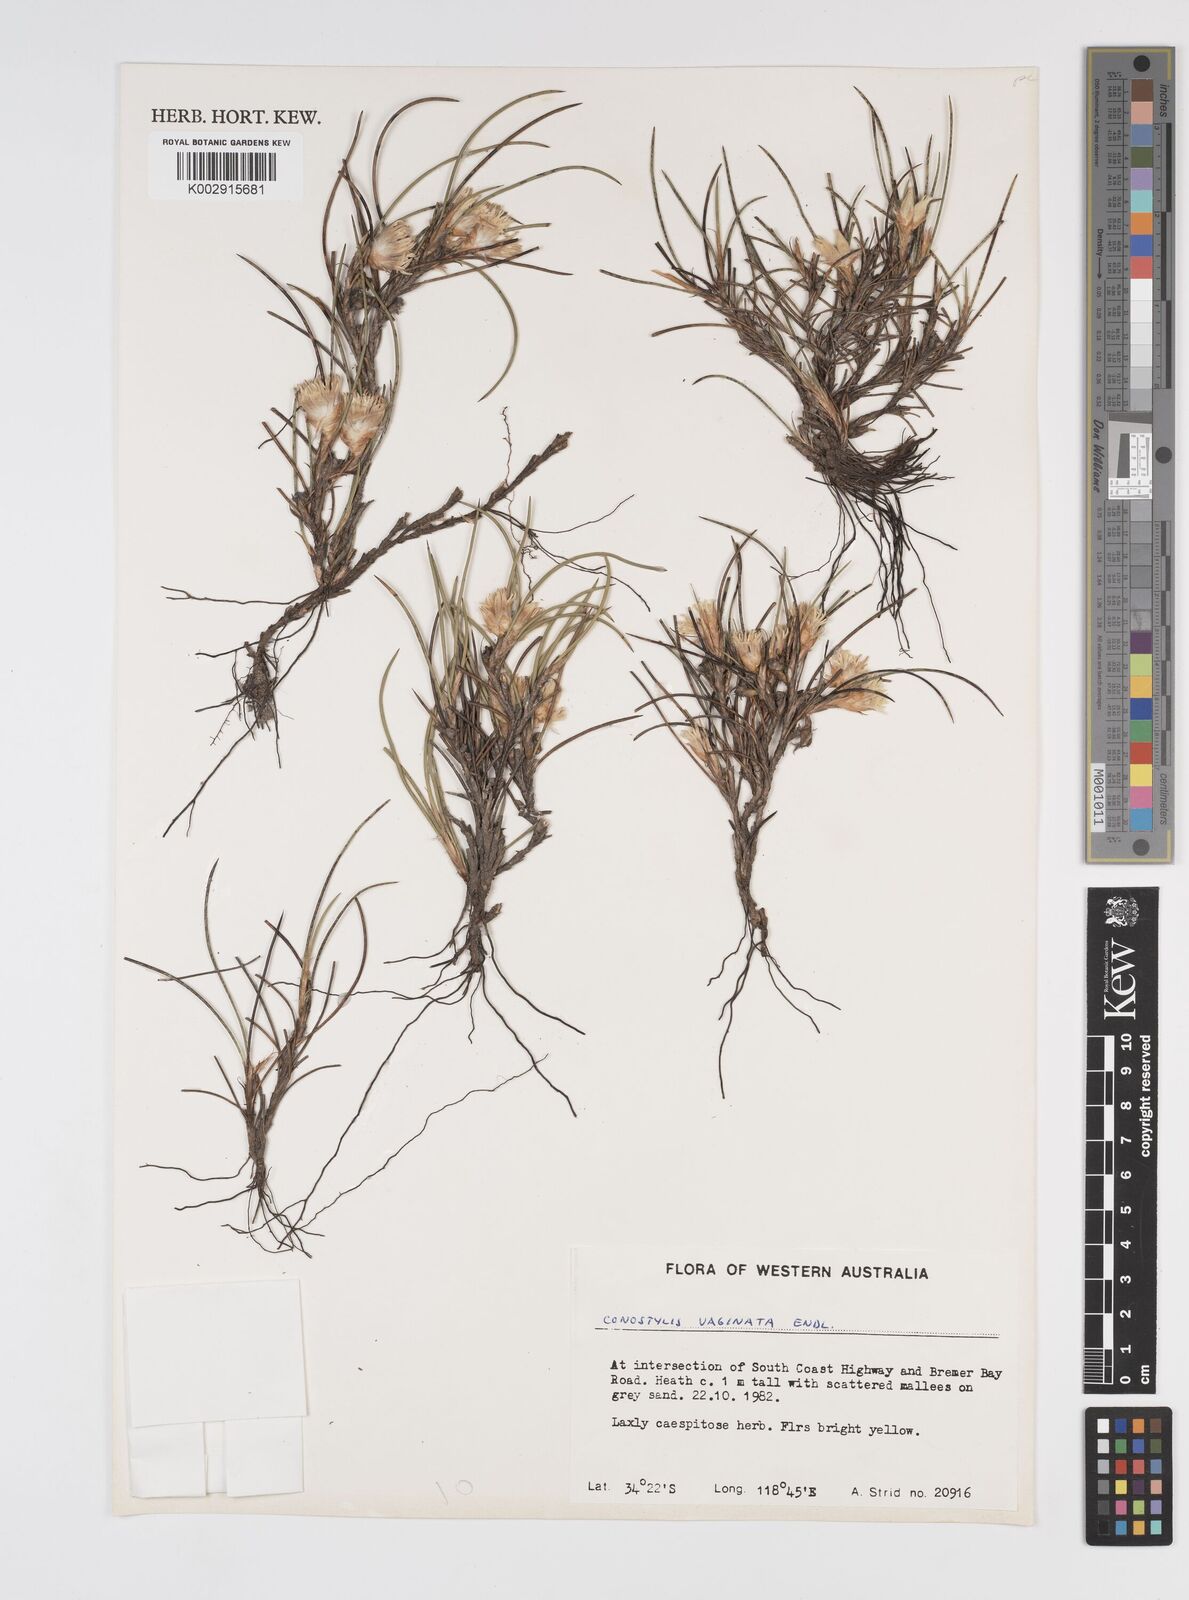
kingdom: Plantae
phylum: Tracheophyta
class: Liliopsida
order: Commelinales
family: Haemodoraceae
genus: Conostylis
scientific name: Conostylis vaginata
